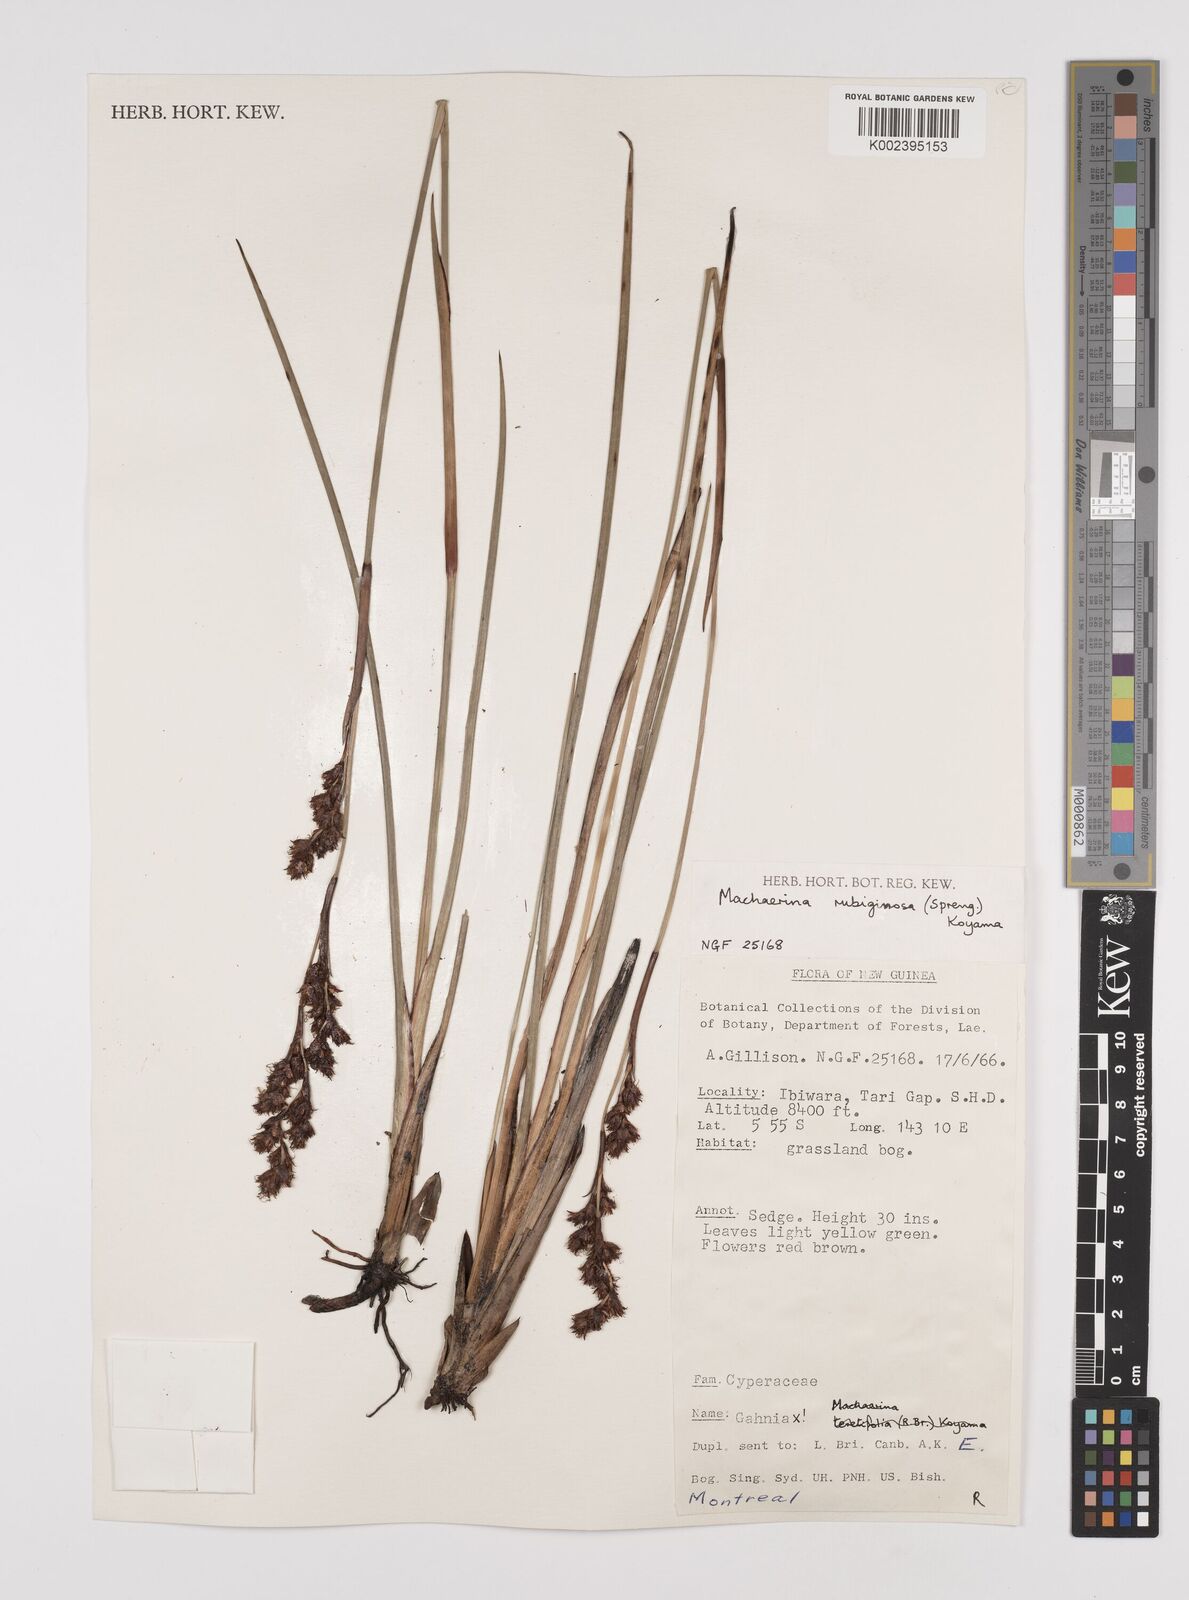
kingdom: Plantae
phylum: Tracheophyta
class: Liliopsida
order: Poales
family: Cyperaceae
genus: Machaerina
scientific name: Machaerina rubiginosa
